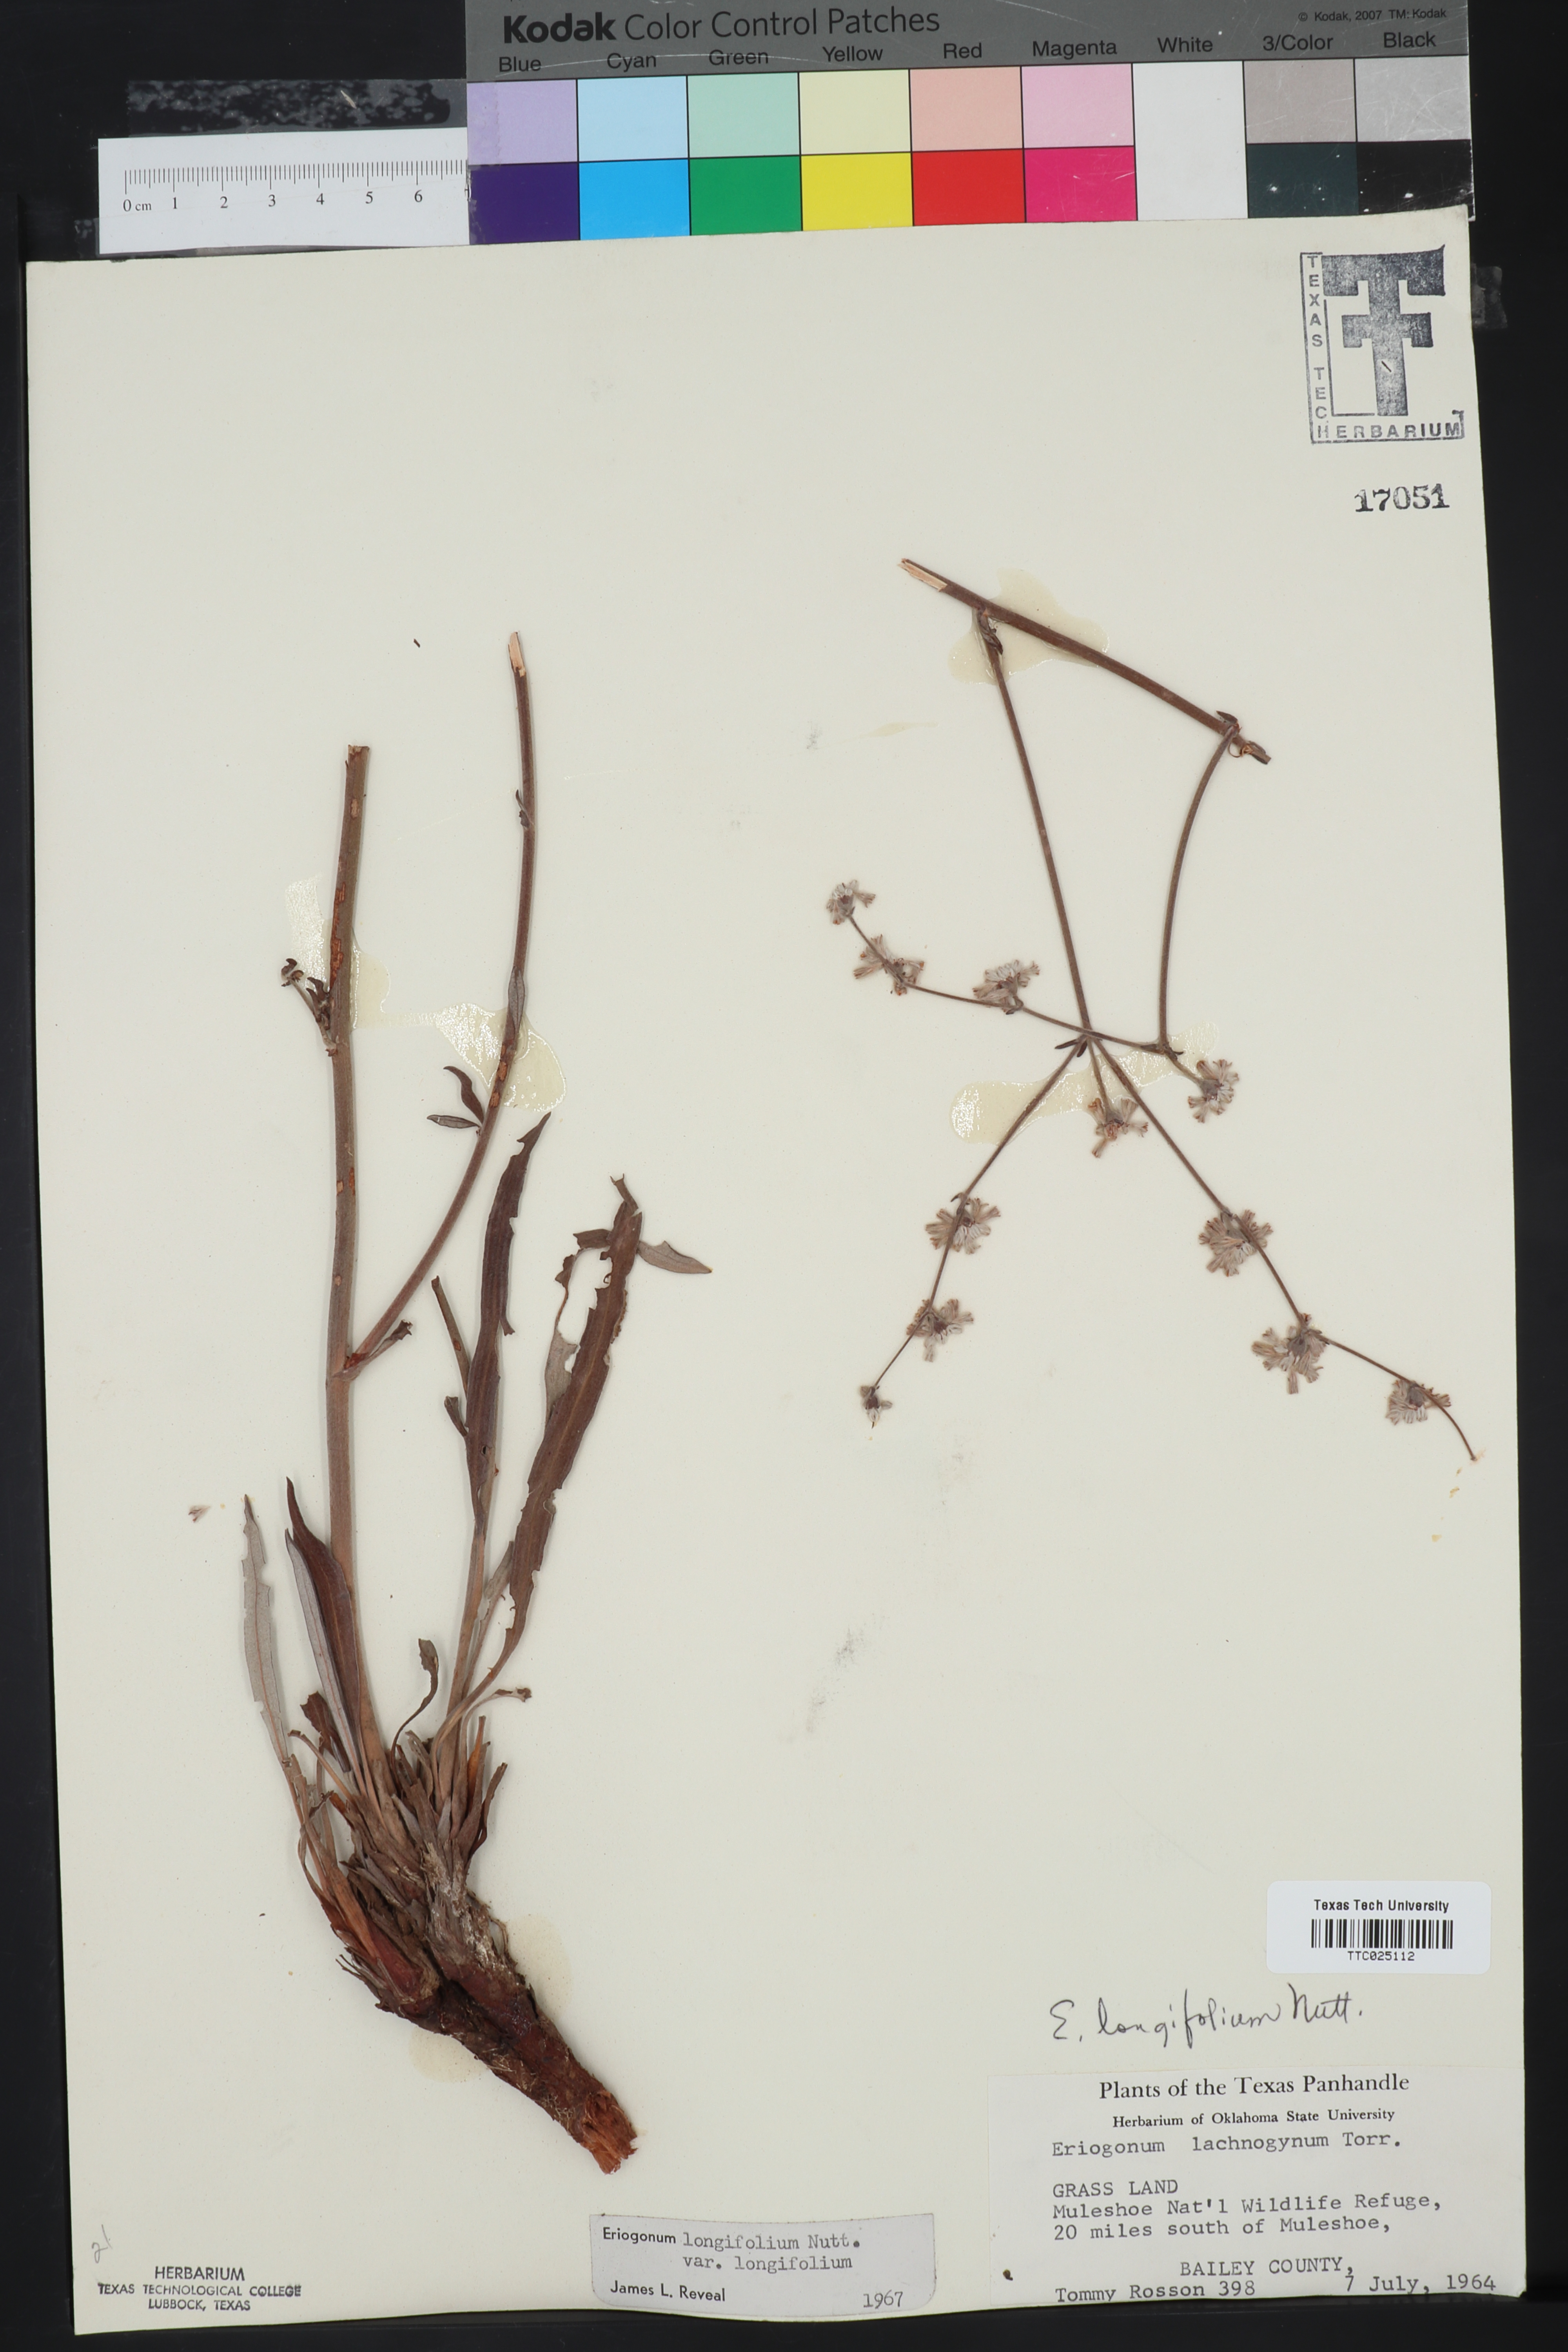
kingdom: Plantae
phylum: Tracheophyta
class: Magnoliopsida
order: Caryophyllales
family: Polygonaceae
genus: Eriogonum
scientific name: Eriogonum longifolium
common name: Longleaf wild buckwheat
